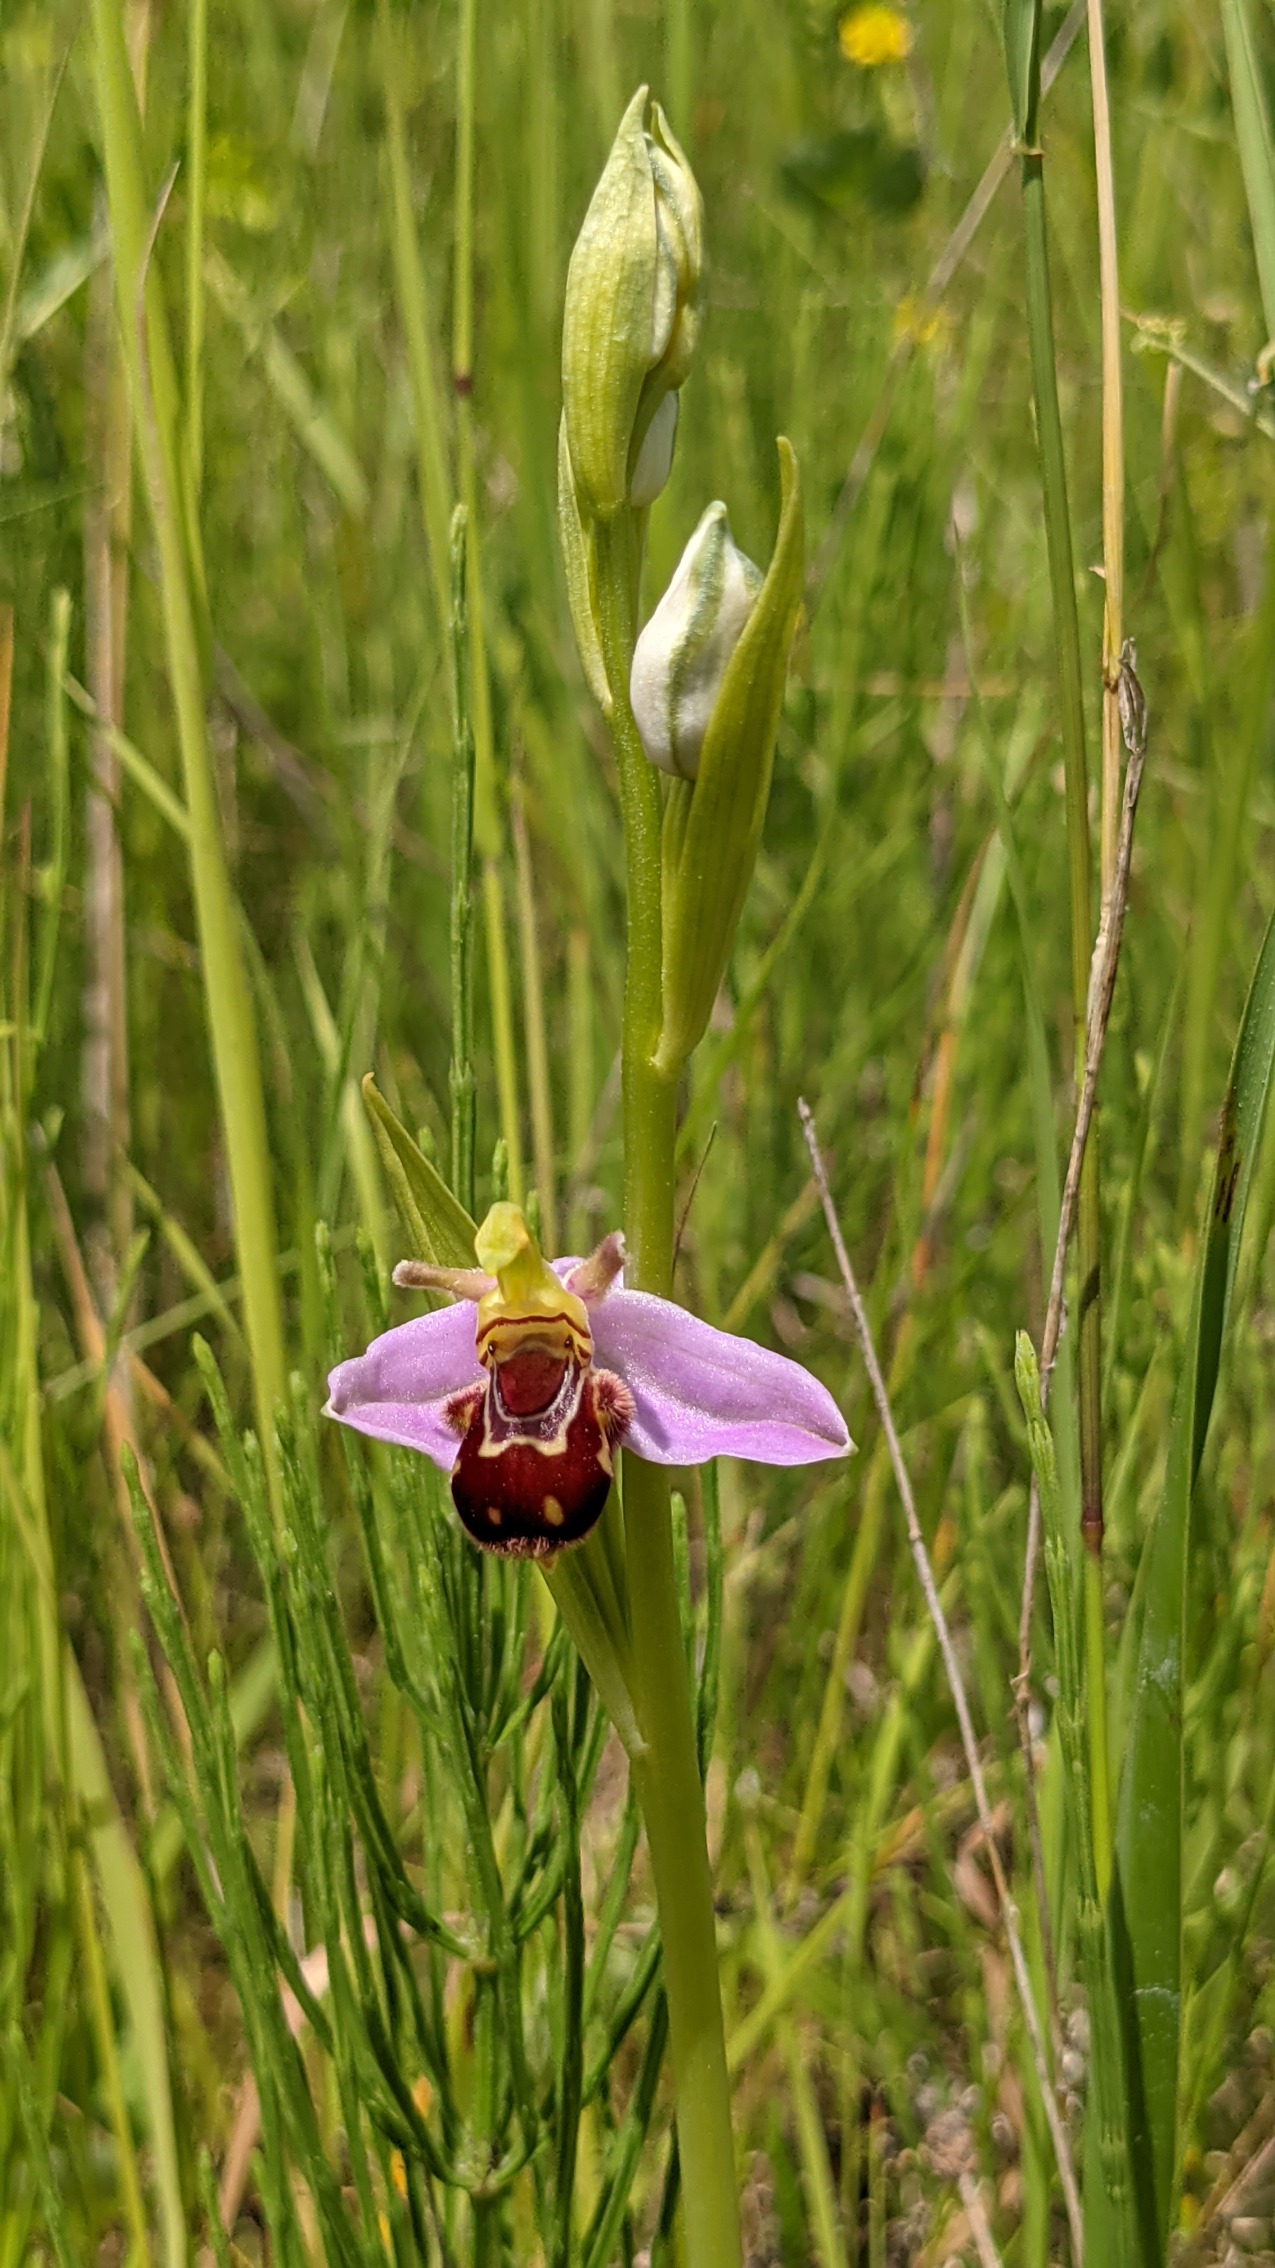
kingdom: Plantae
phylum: Tracheophyta
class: Liliopsida
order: Asparagales
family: Orchidaceae
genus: Ophrys
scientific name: Ophrys apifera
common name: Biblomst
